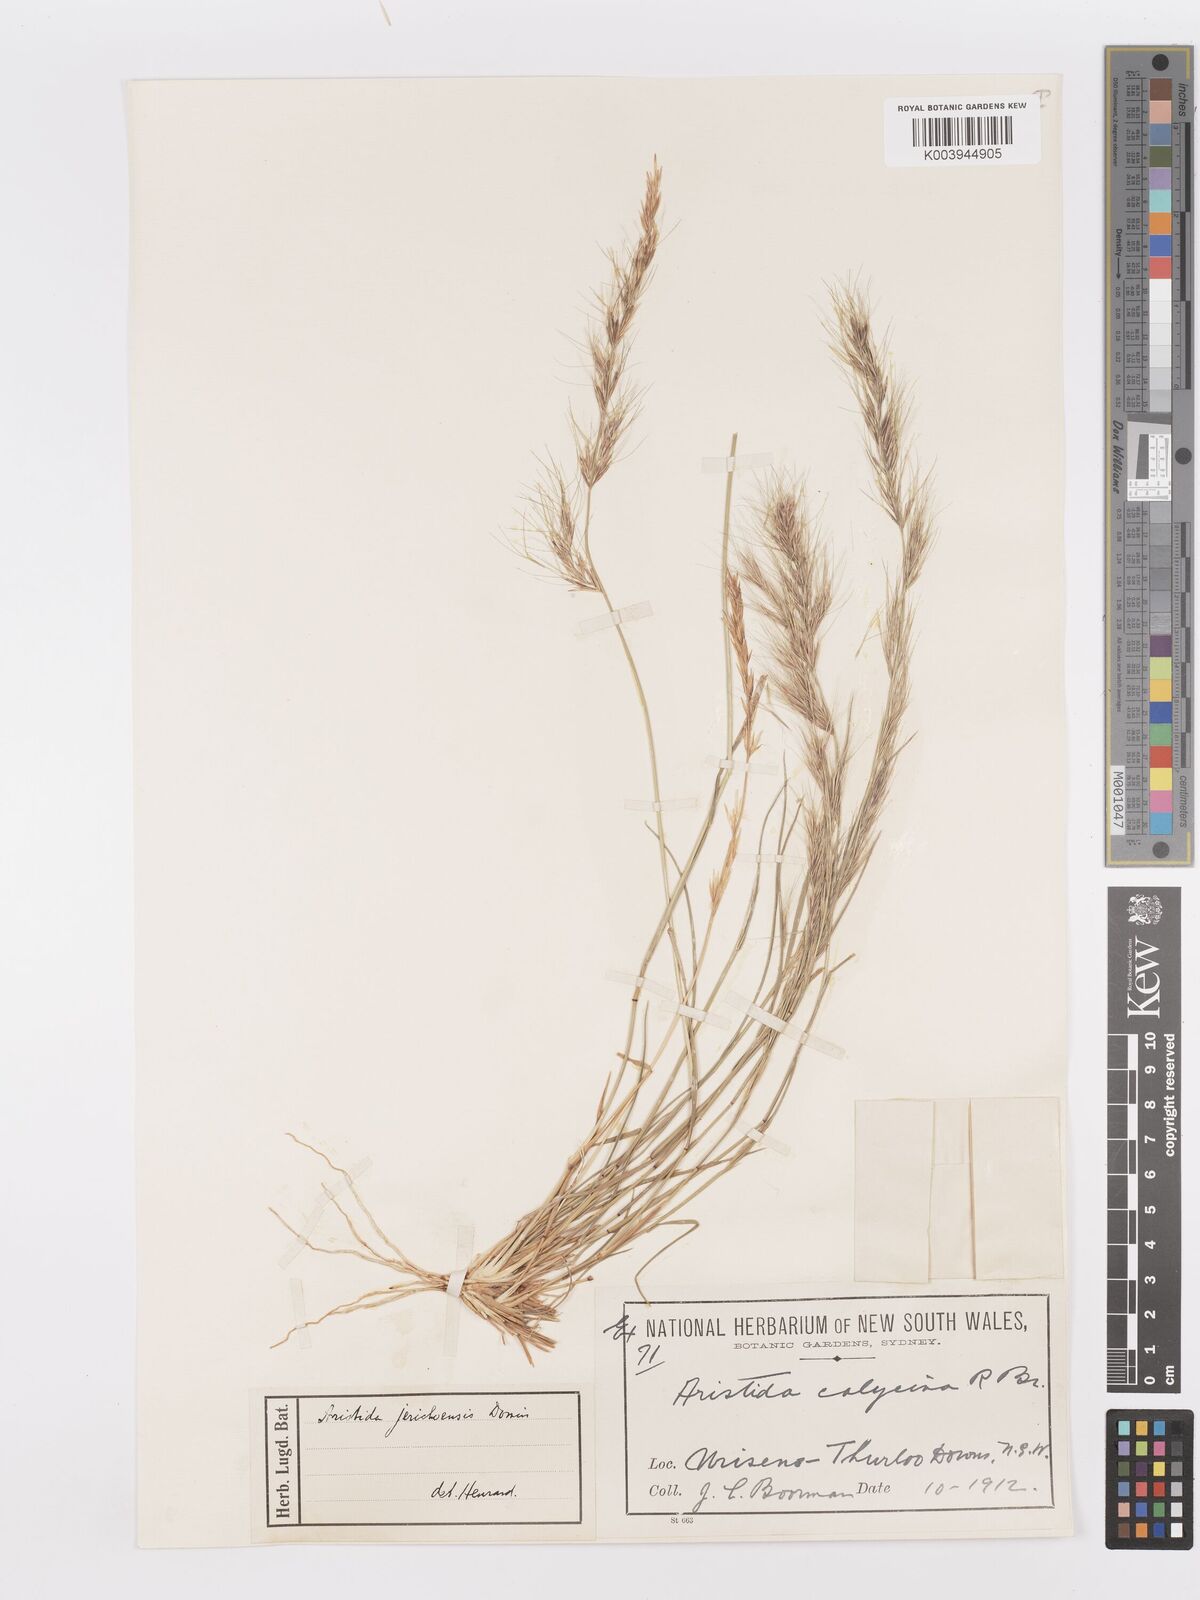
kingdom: Plantae
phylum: Tracheophyta
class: Liliopsida
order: Poales
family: Poaceae
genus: Aristida
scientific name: Aristida jerichoensis
